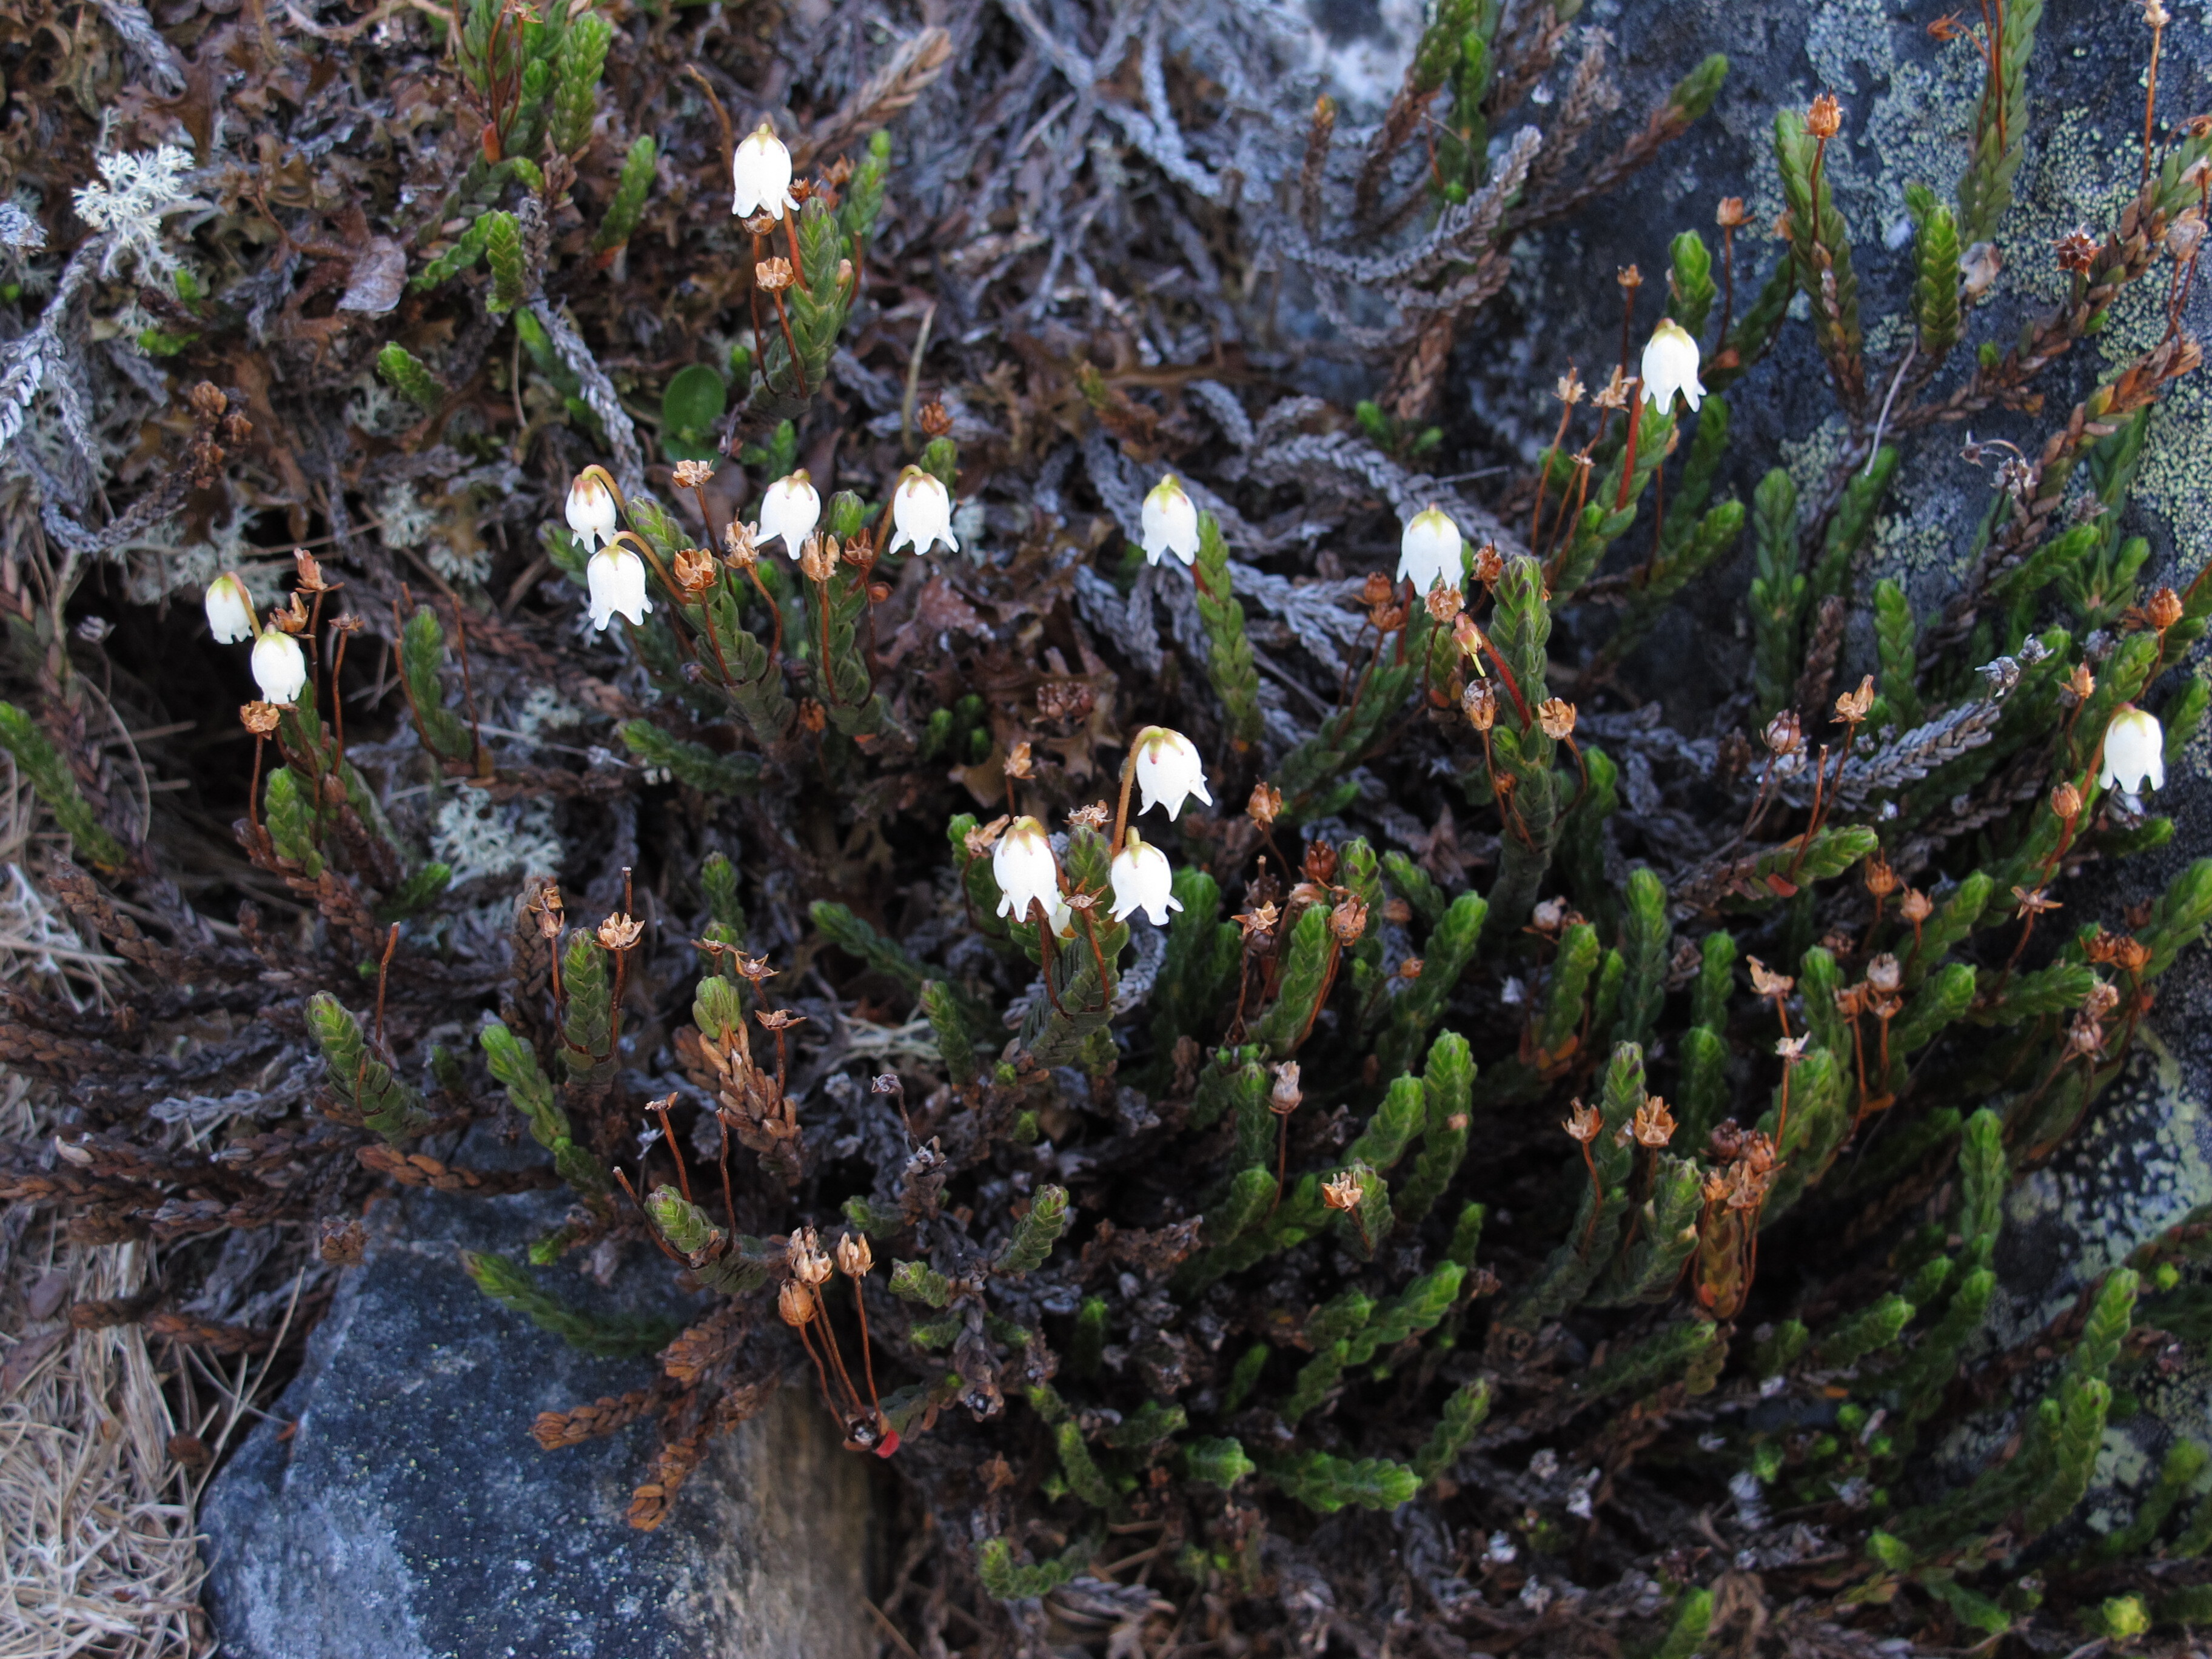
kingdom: Plantae
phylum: Tracheophyta
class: Magnoliopsida
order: Ericales
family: Ericaceae
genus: Cassiope
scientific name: Cassiope tetragona
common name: Arctic bell heather
